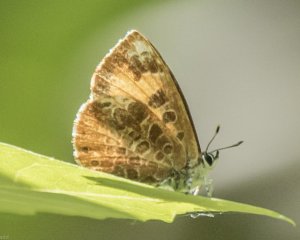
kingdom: Animalia
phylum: Arthropoda
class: Insecta
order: Lepidoptera
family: Lycaenidae
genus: Feniseca
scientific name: Feniseca tarquinius
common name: Harvester
